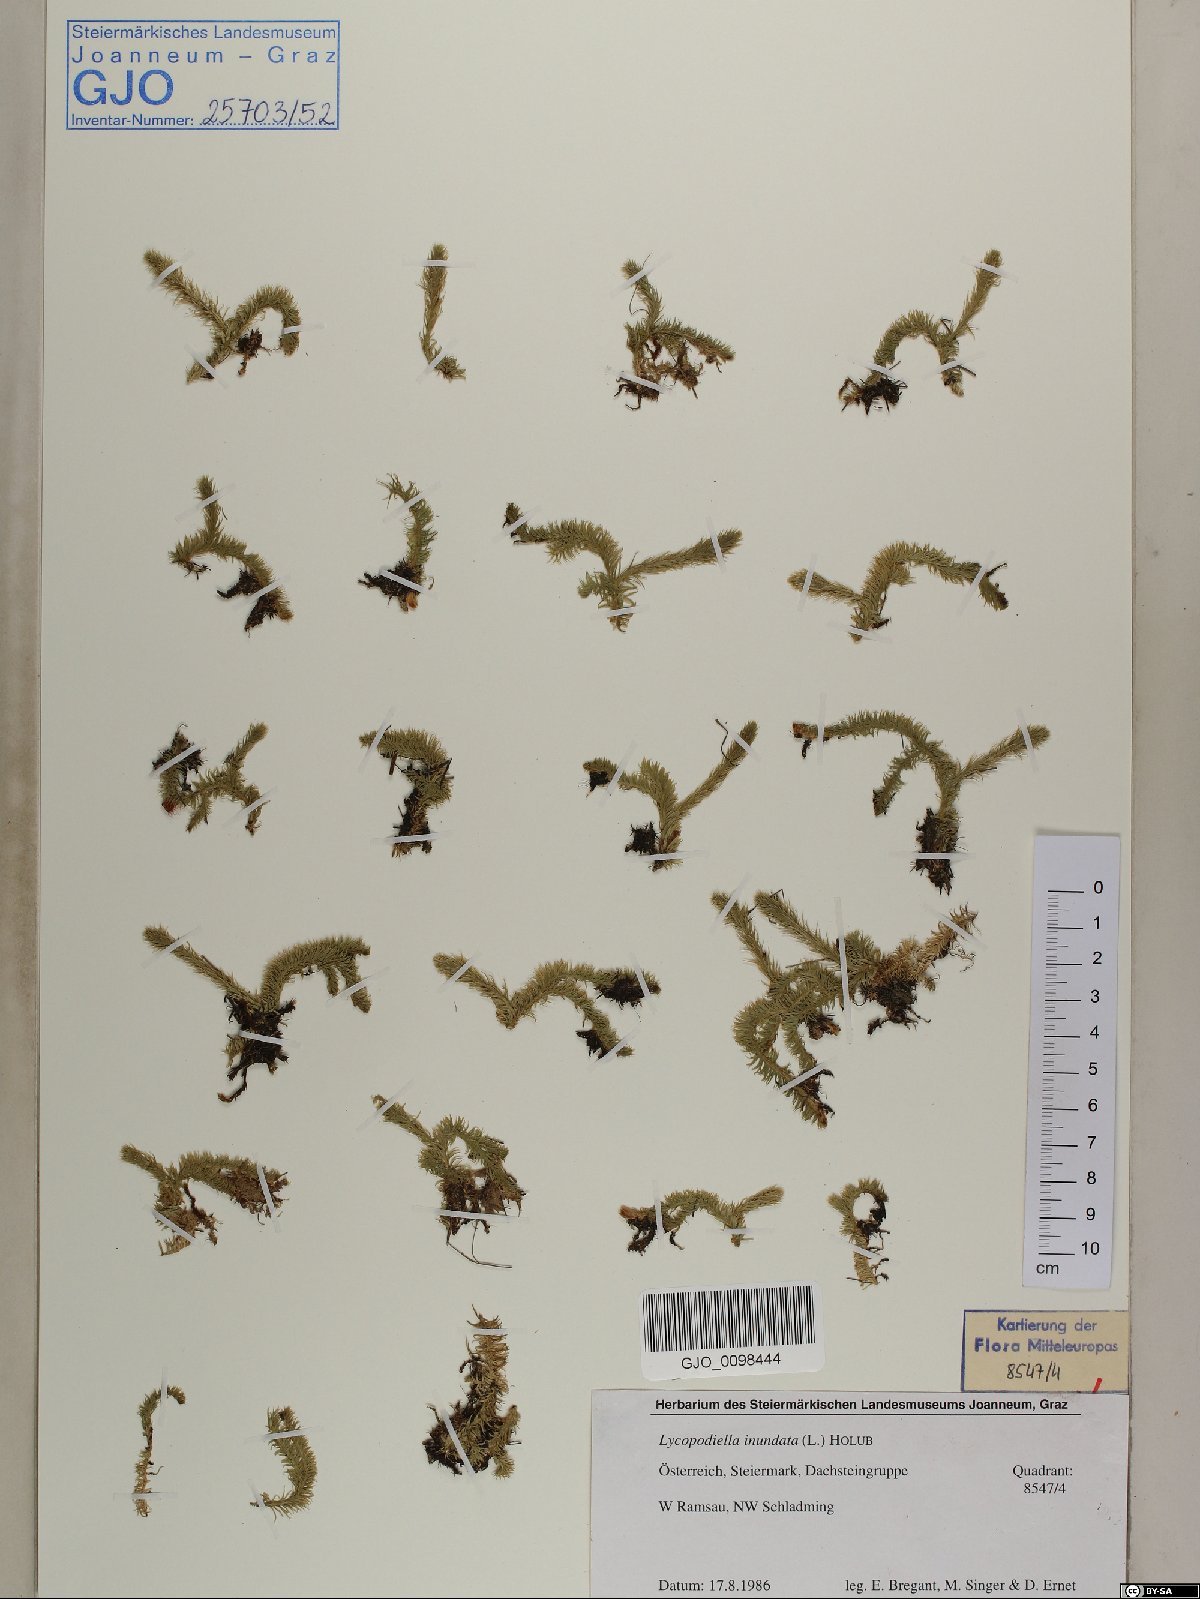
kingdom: Plantae
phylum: Tracheophyta
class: Lycopodiopsida
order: Lycopodiales
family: Lycopodiaceae
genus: Lycopodiella
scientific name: Lycopodiella inundata
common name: Marsh clubmoss
